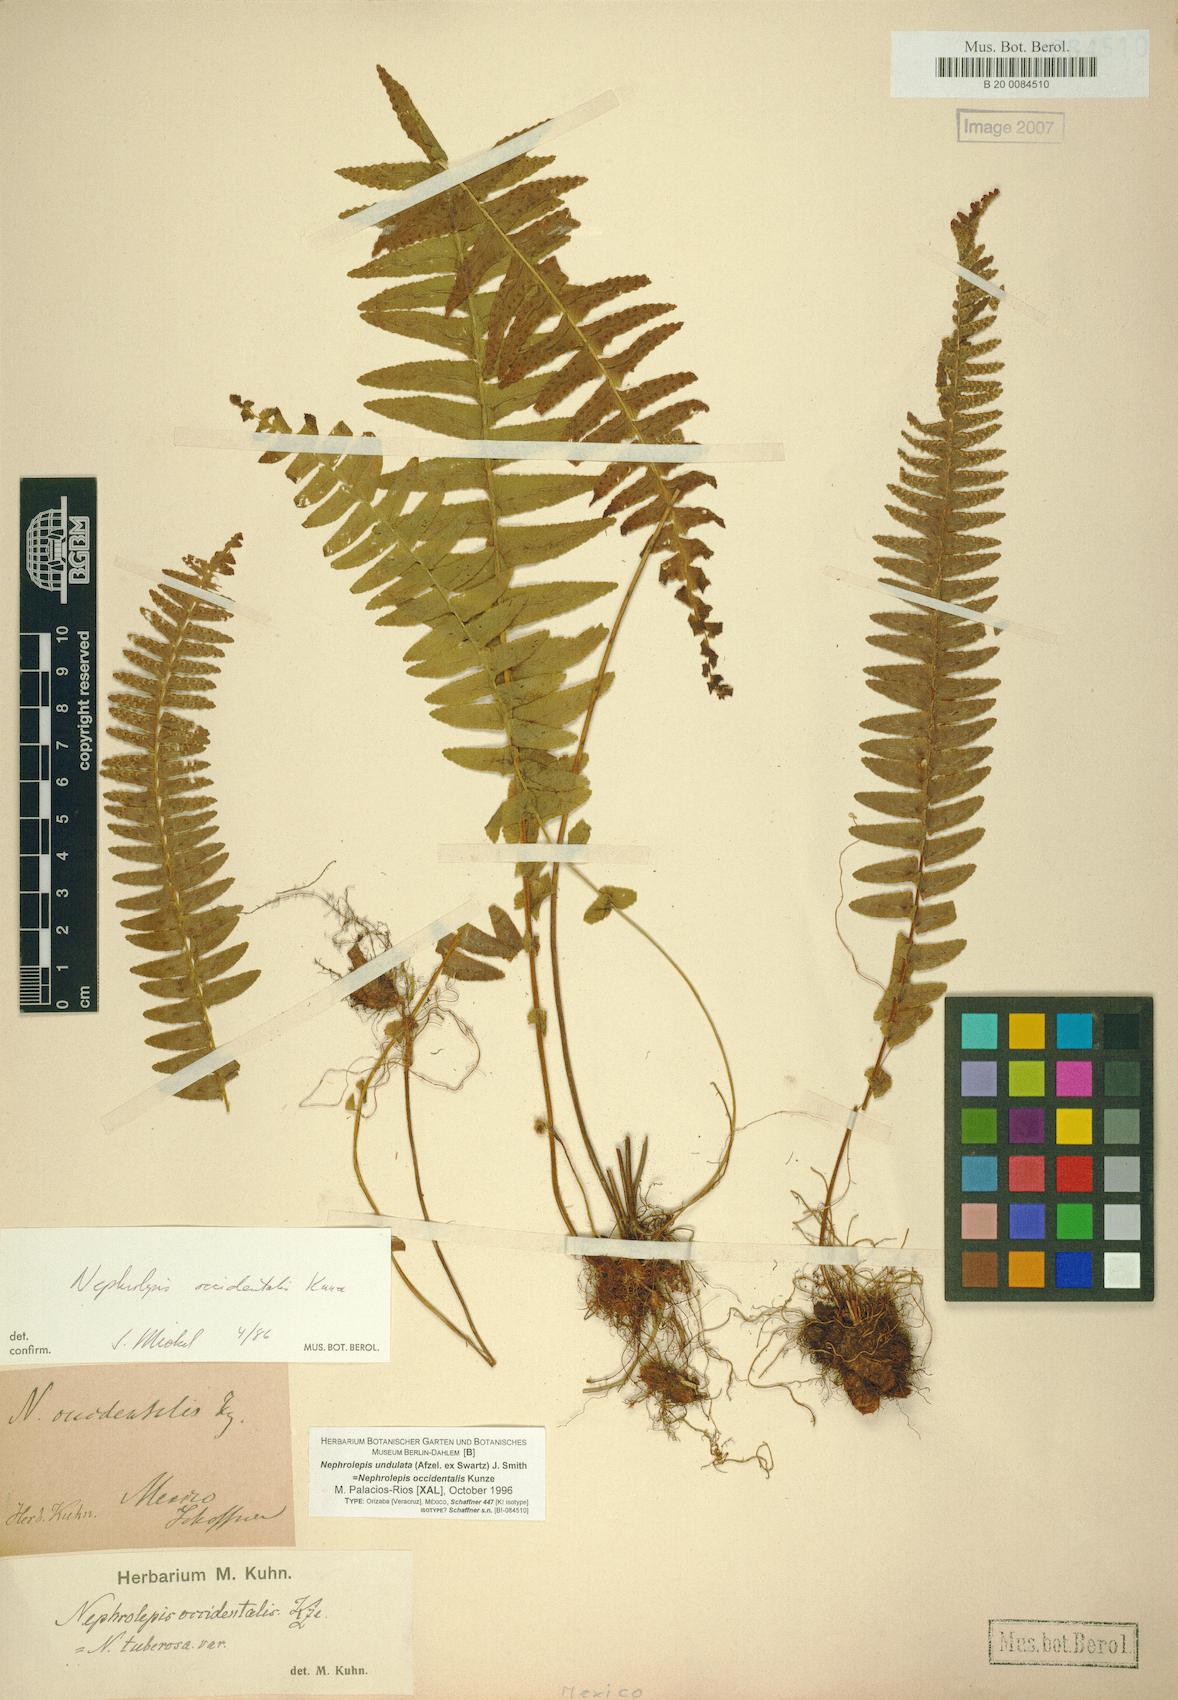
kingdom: Plantae
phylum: Tracheophyta
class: Polypodiopsida
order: Polypodiales
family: Nephrolepidaceae
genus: Nephrolepis
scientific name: Nephrolepis undulata
